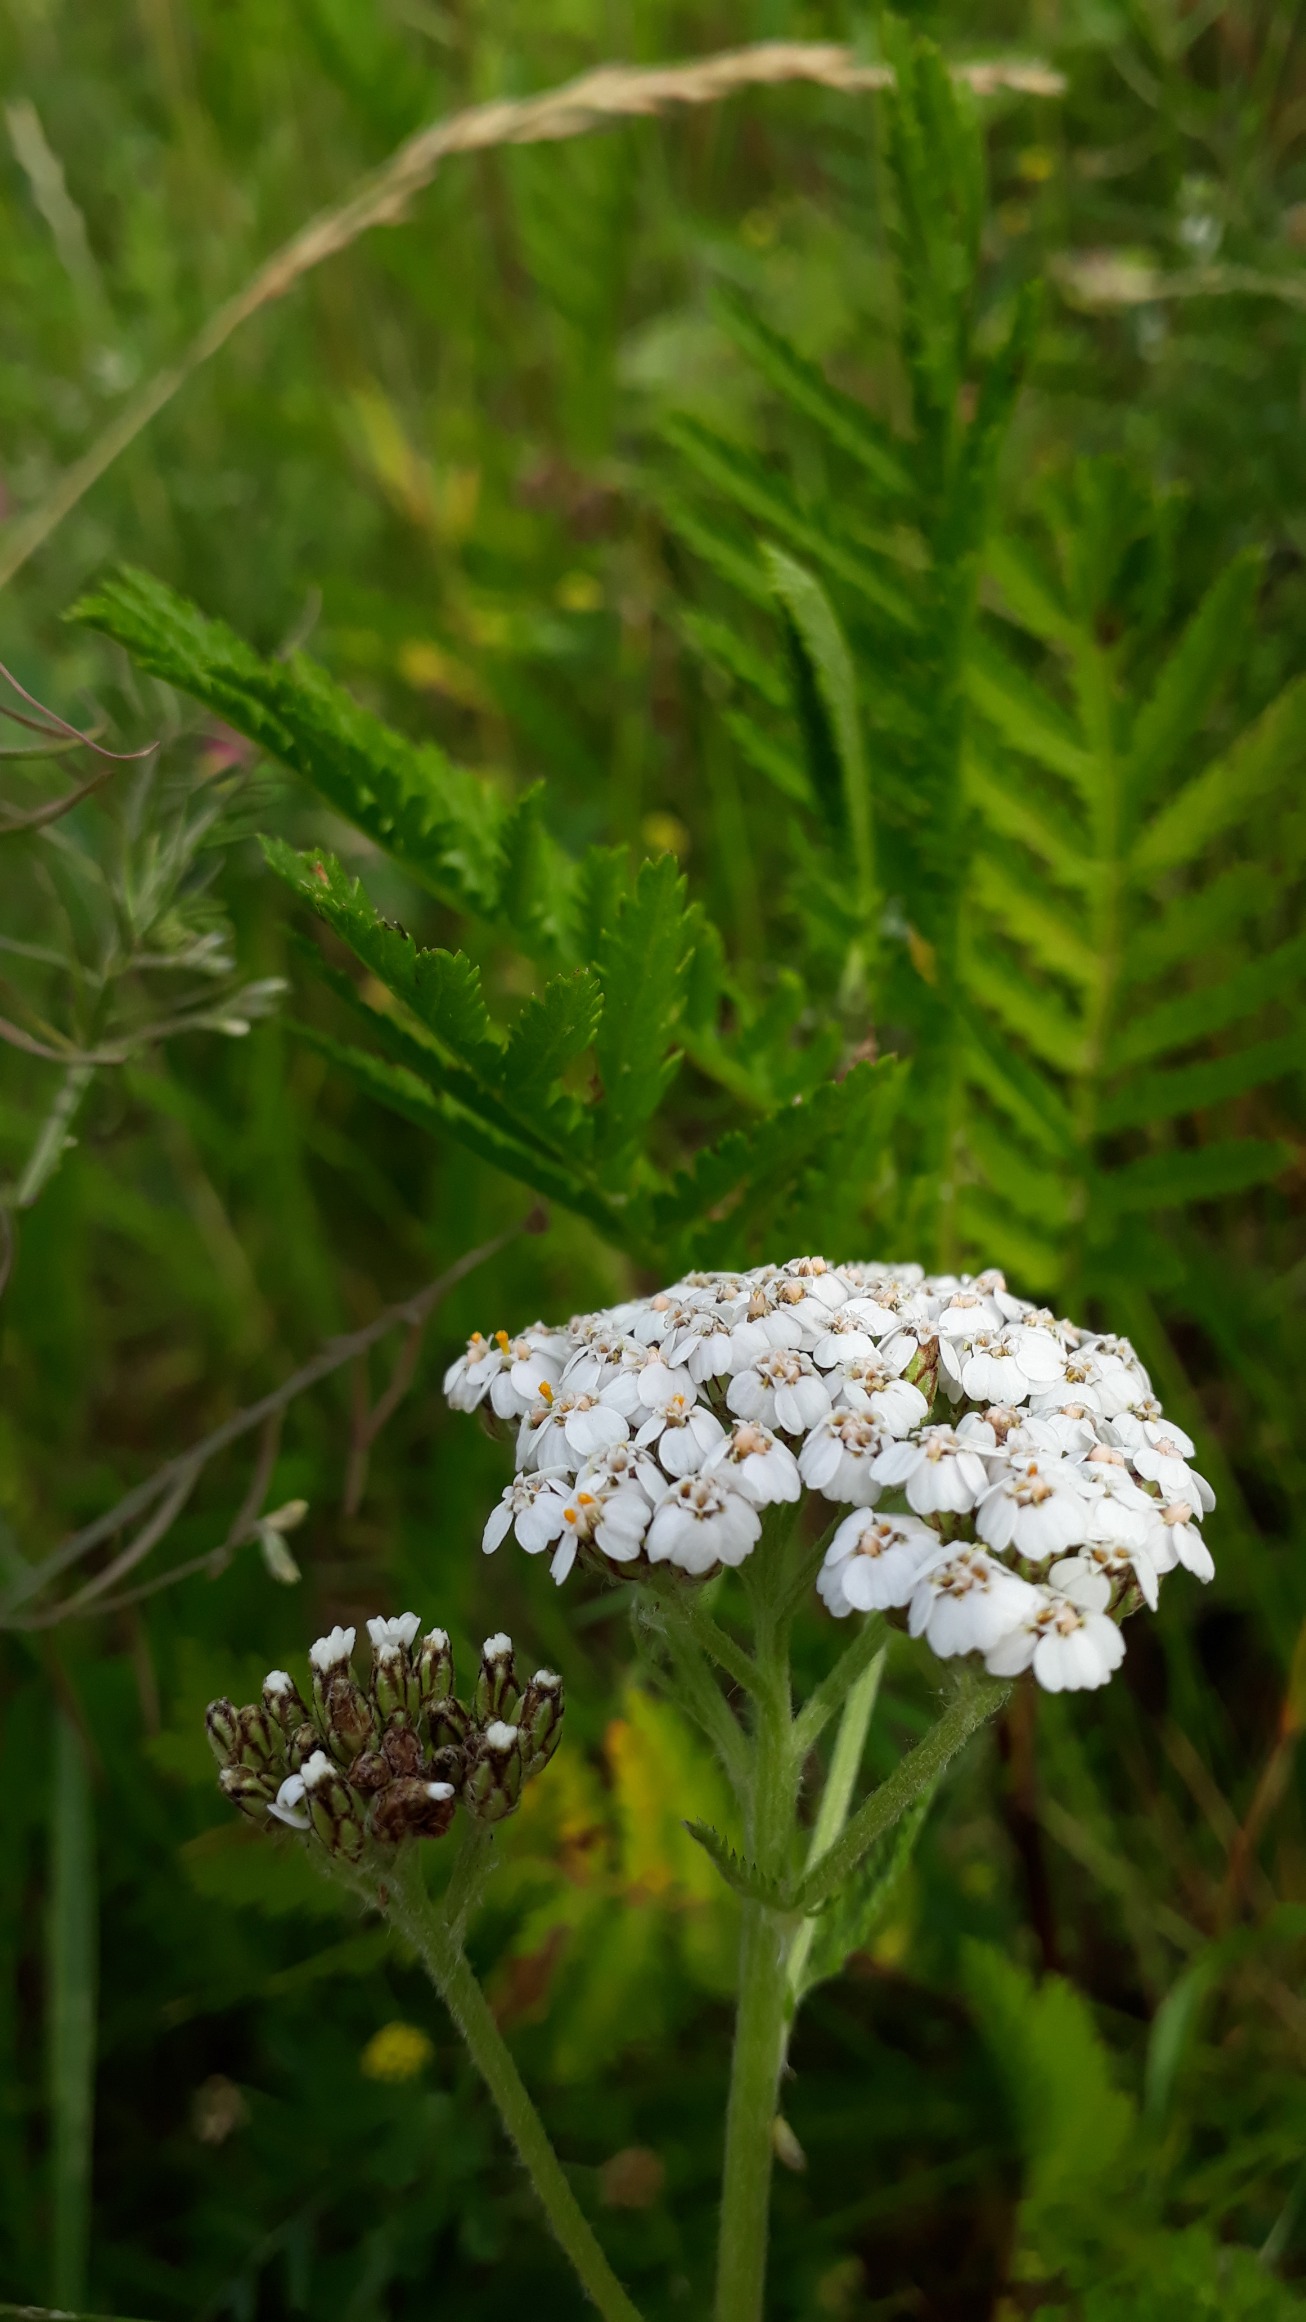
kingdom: Plantae
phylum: Tracheophyta
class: Magnoliopsida
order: Asterales
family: Asteraceae
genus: Achillea
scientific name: Achillea millefolium
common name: Almindelig røllike
